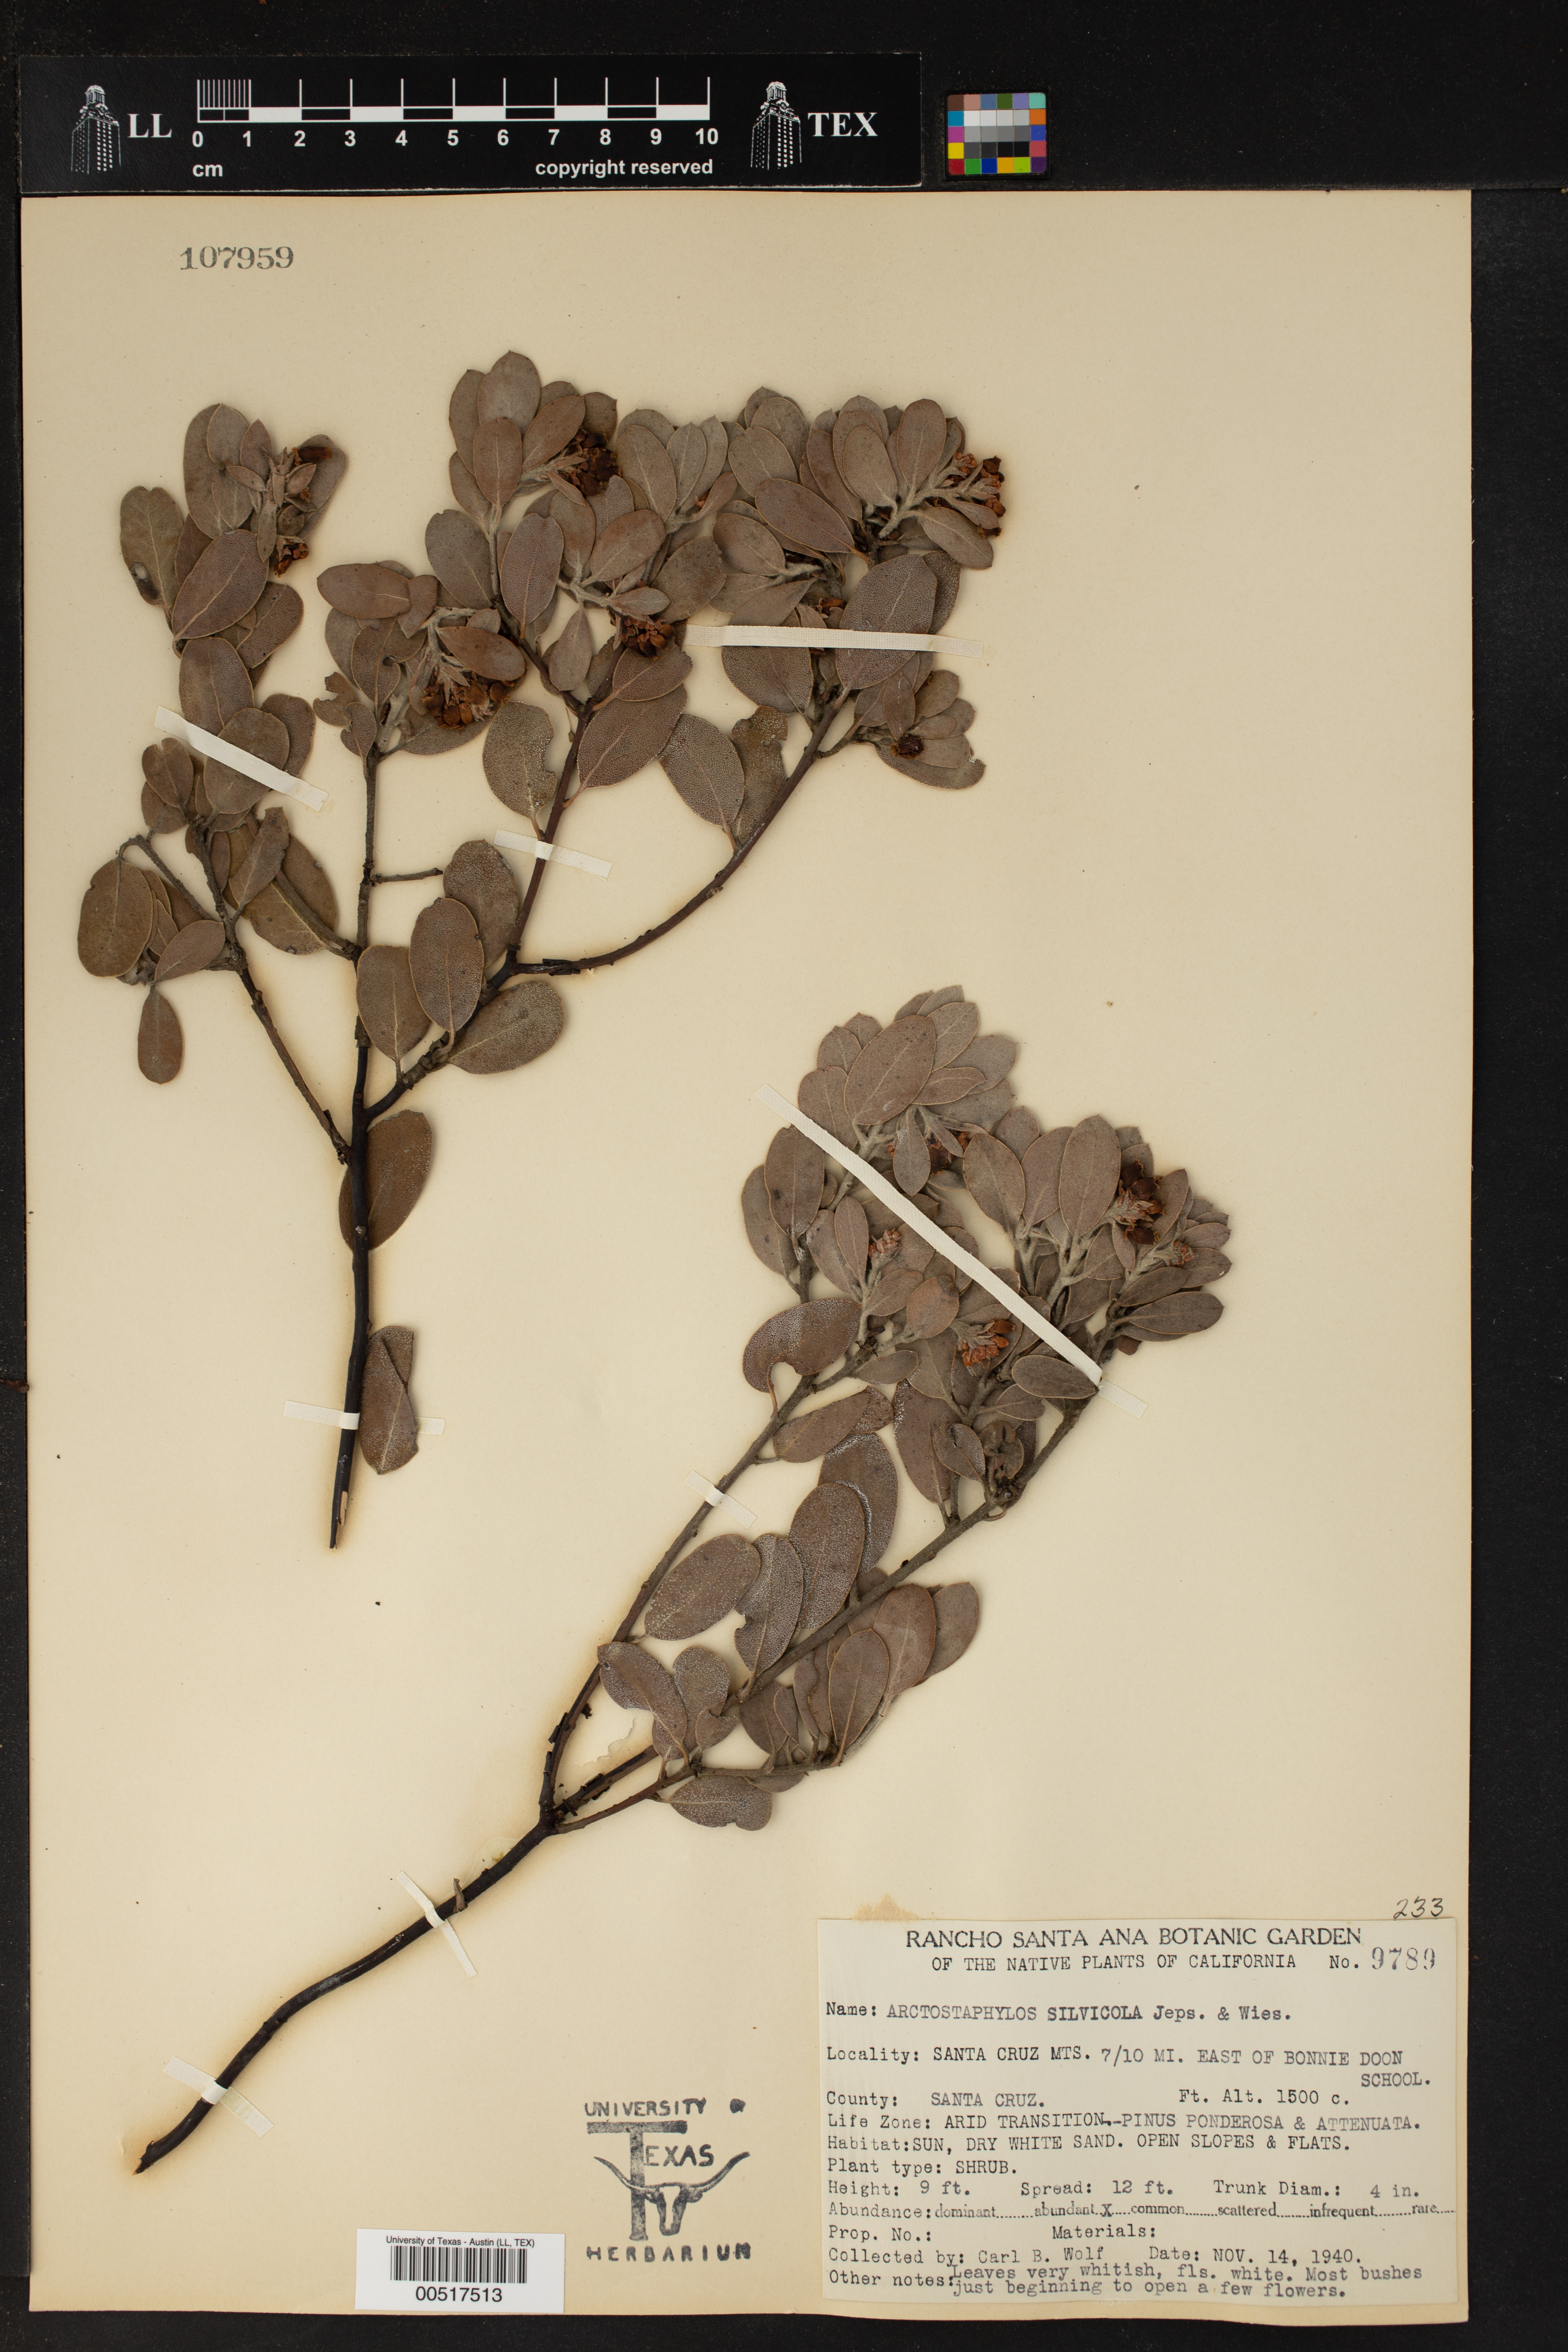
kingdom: Plantae
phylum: Tracheophyta
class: Magnoliopsida
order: Ericales
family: Ericaceae
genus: Arctostaphylos
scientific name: Arctostaphylos silvicola
